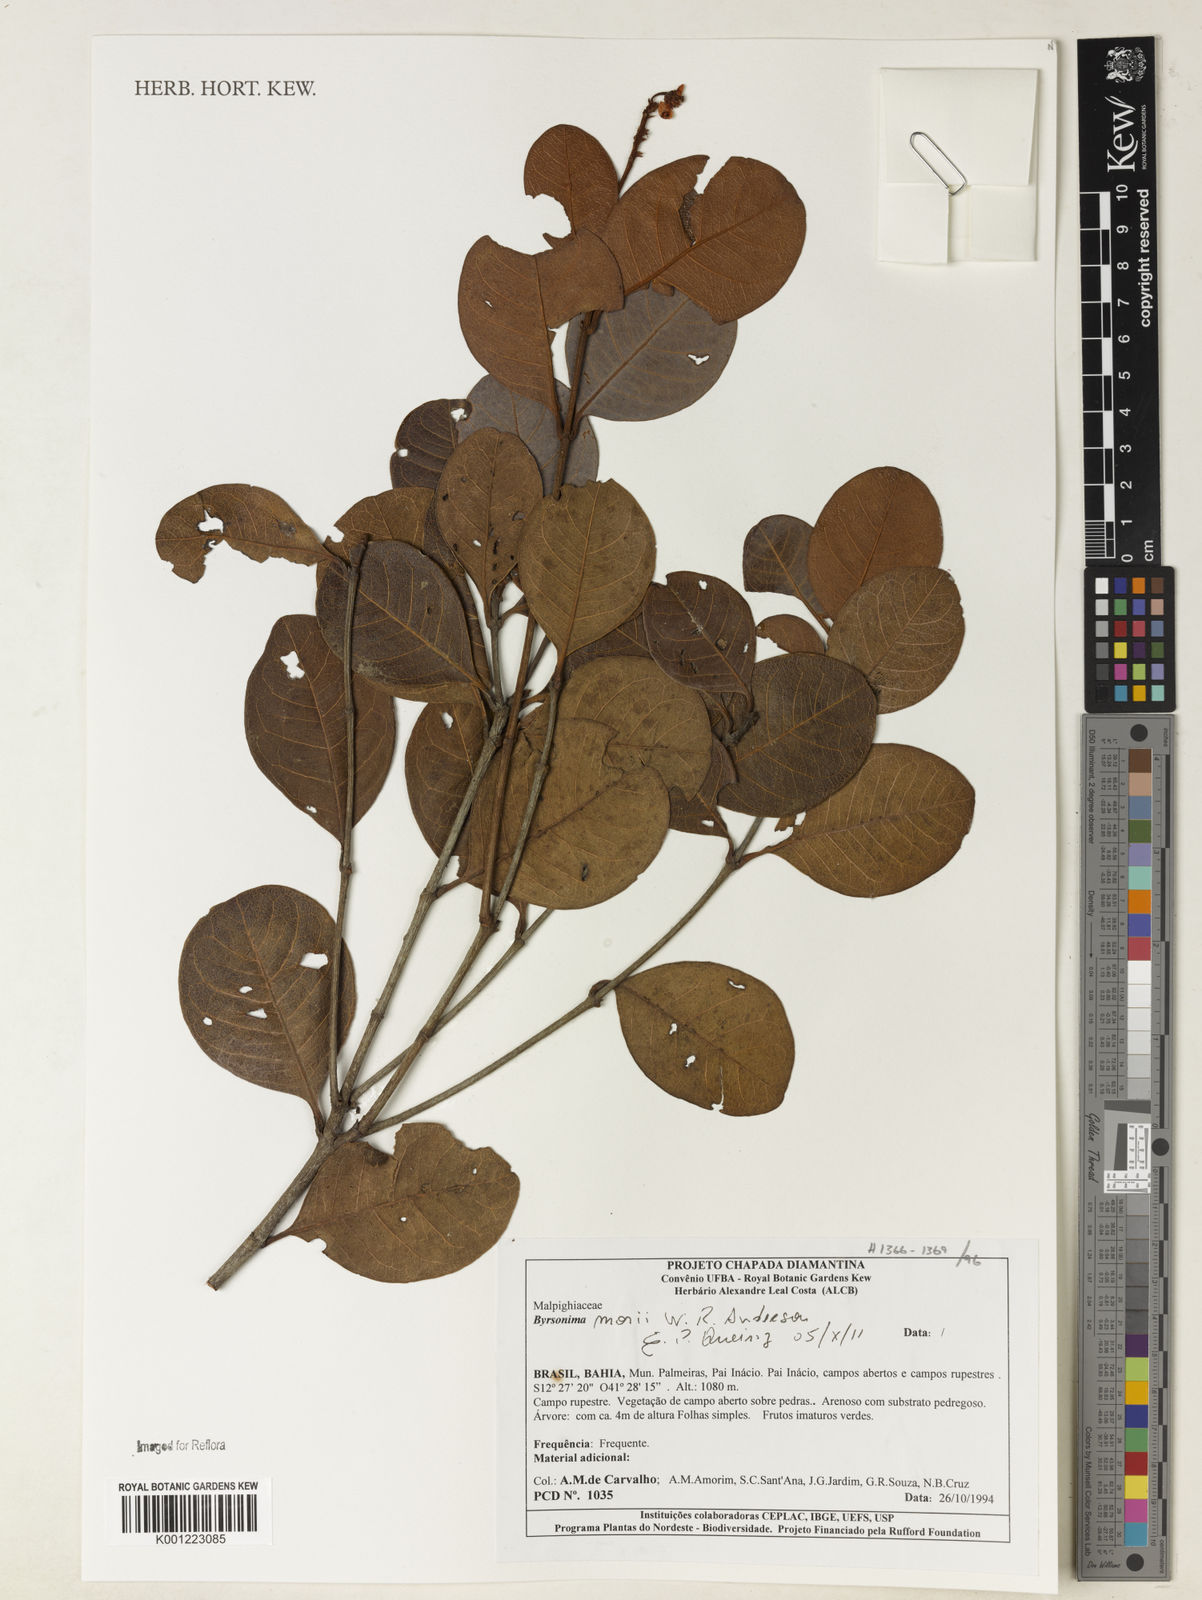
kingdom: Plantae
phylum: Tracheophyta
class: Magnoliopsida
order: Malpighiales
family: Malpighiaceae
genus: Byrsonima
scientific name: Byrsonima morii
